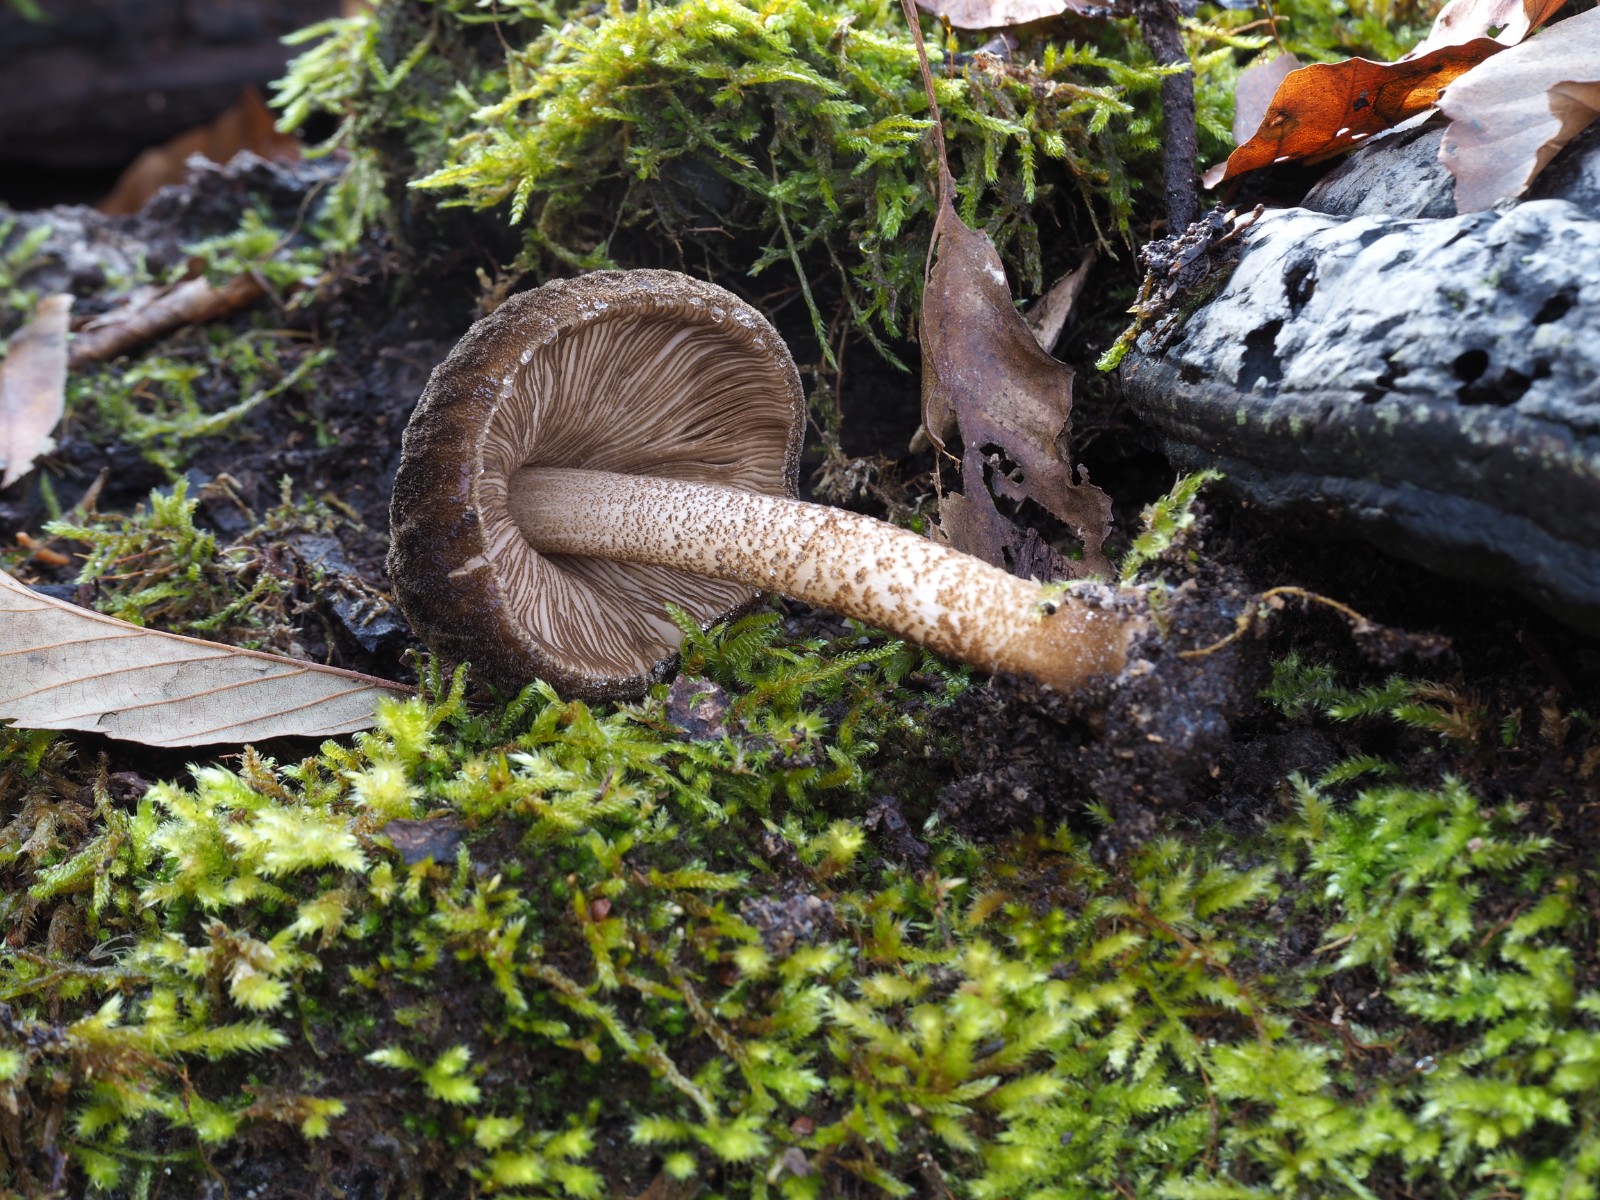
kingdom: Fungi
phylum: Basidiomycota
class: Agaricomycetes
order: Agaricales
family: Pluteaceae
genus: Pluteus
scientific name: Pluteus umbrosus
